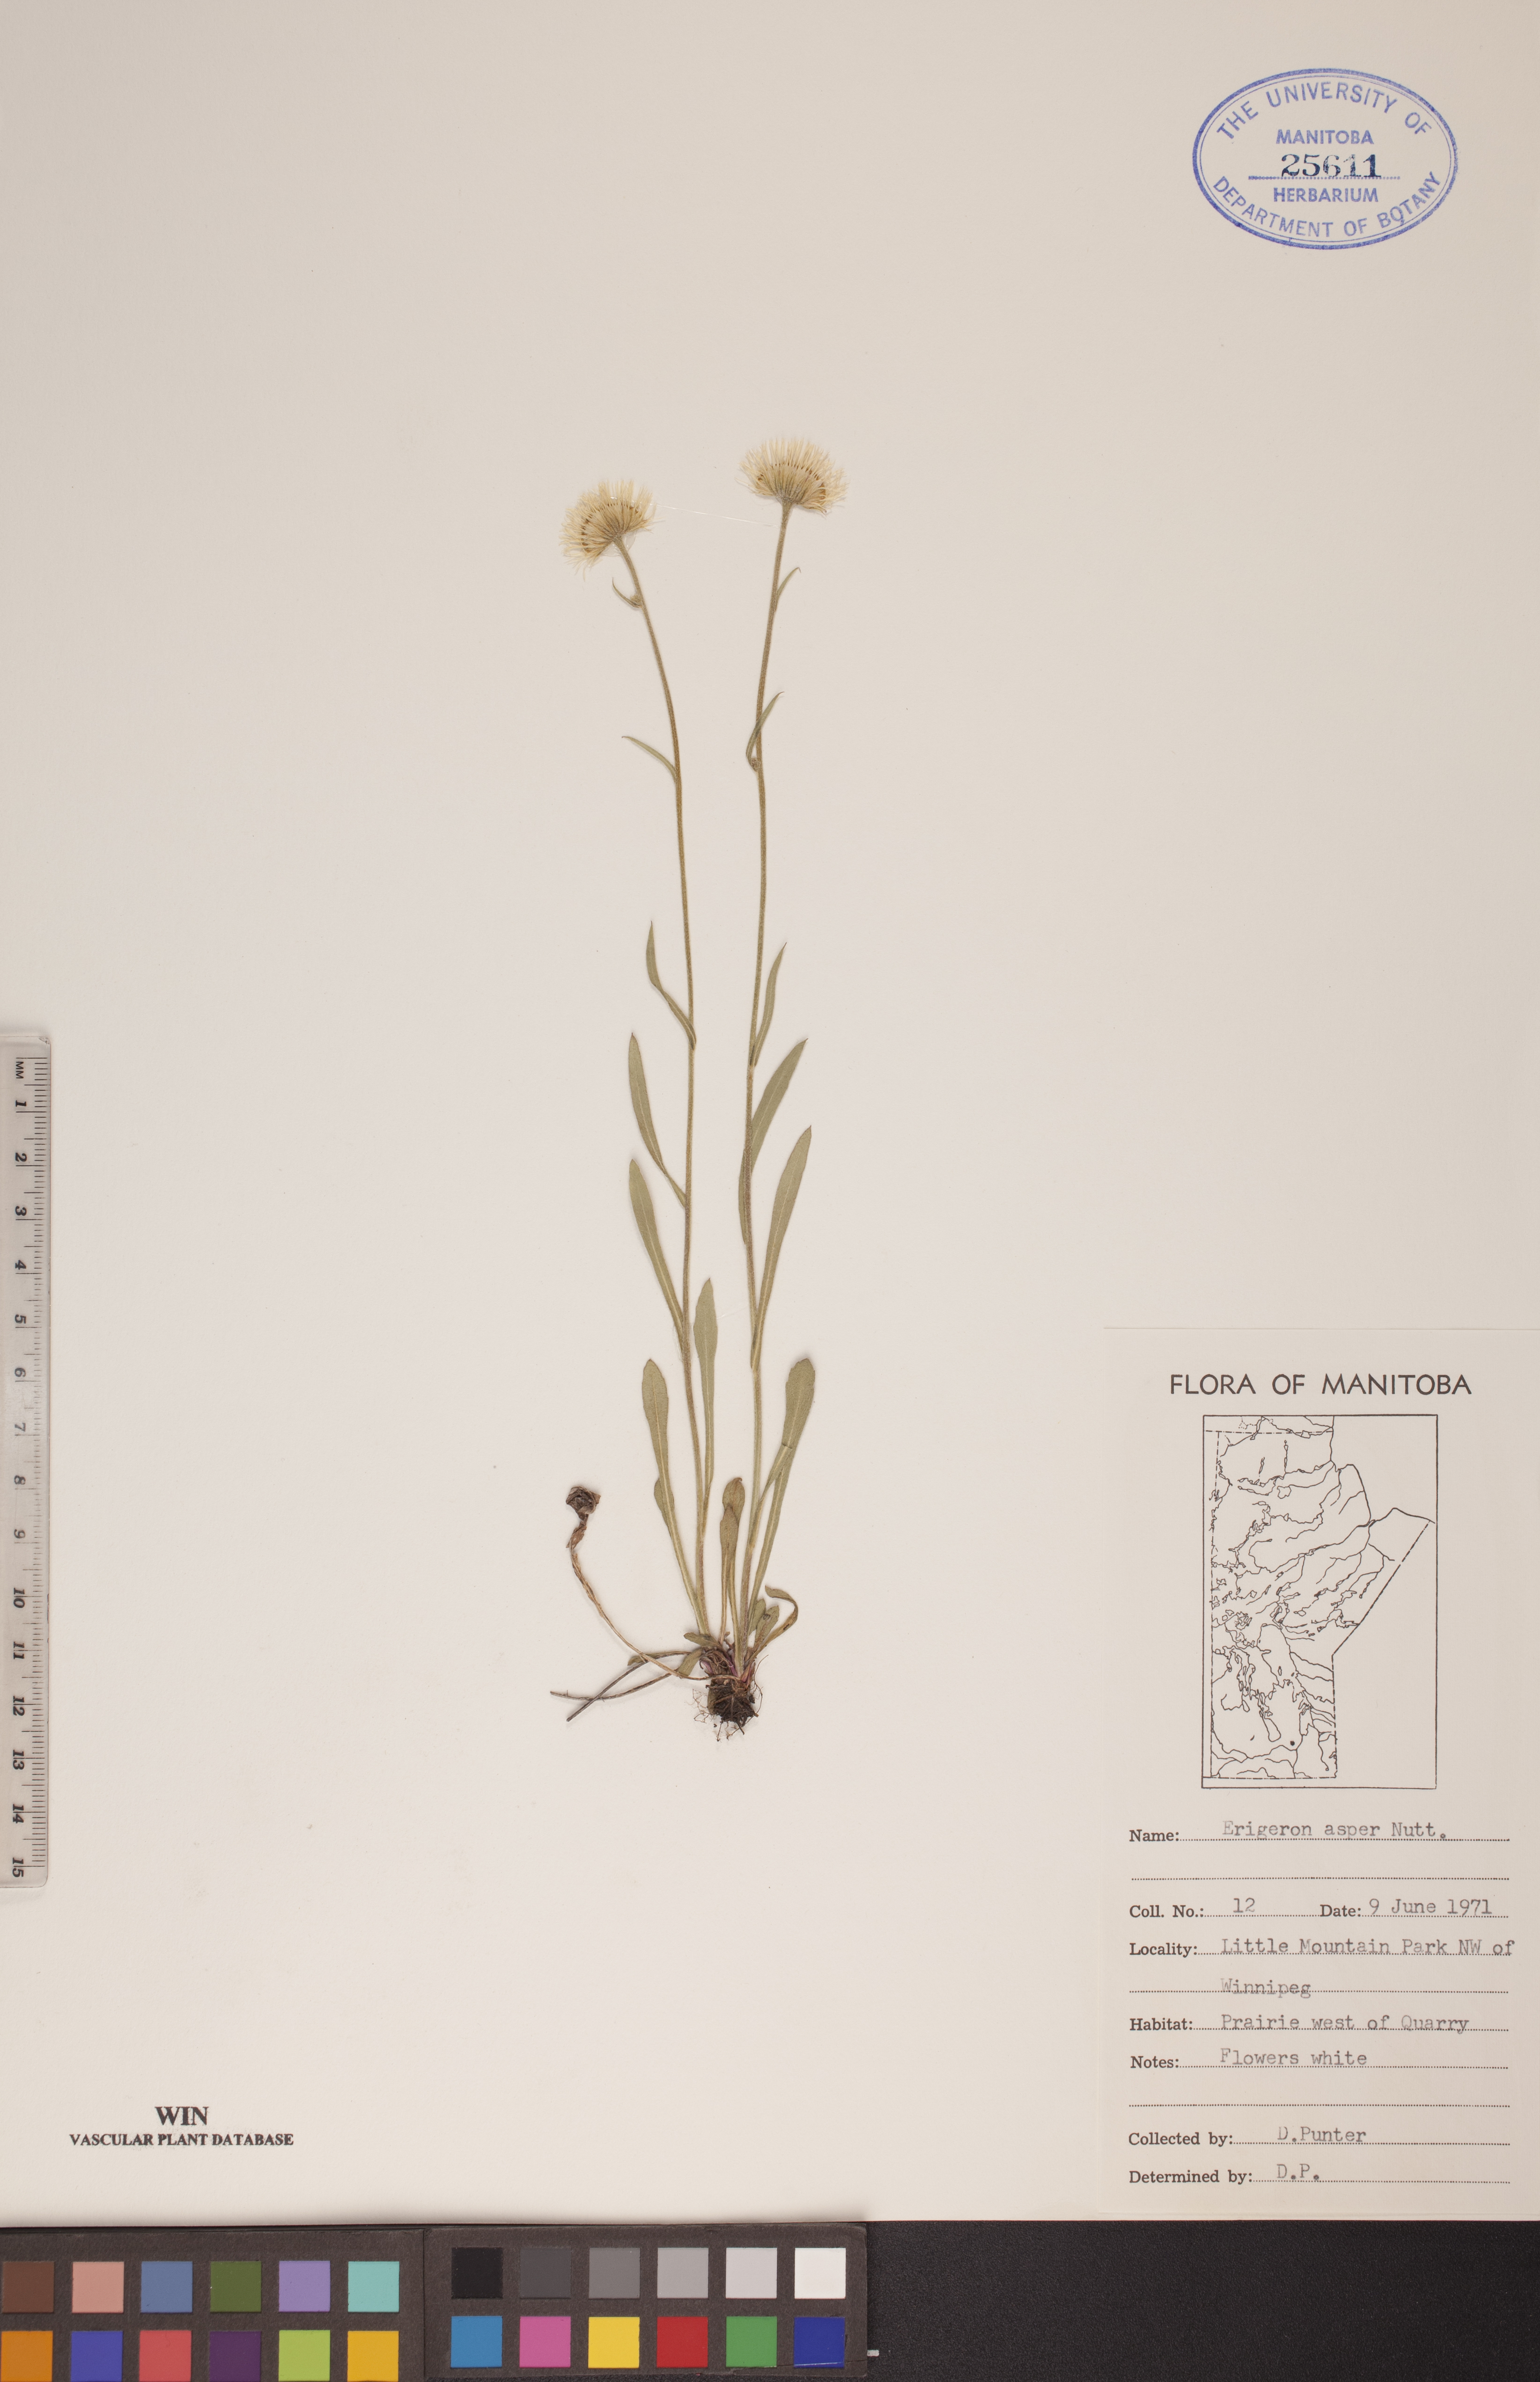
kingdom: Plantae
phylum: Tracheophyta
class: Magnoliopsida
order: Asterales
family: Asteraceae
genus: Erigeron
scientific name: Erigeron glabellus
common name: Smooth fleabane
